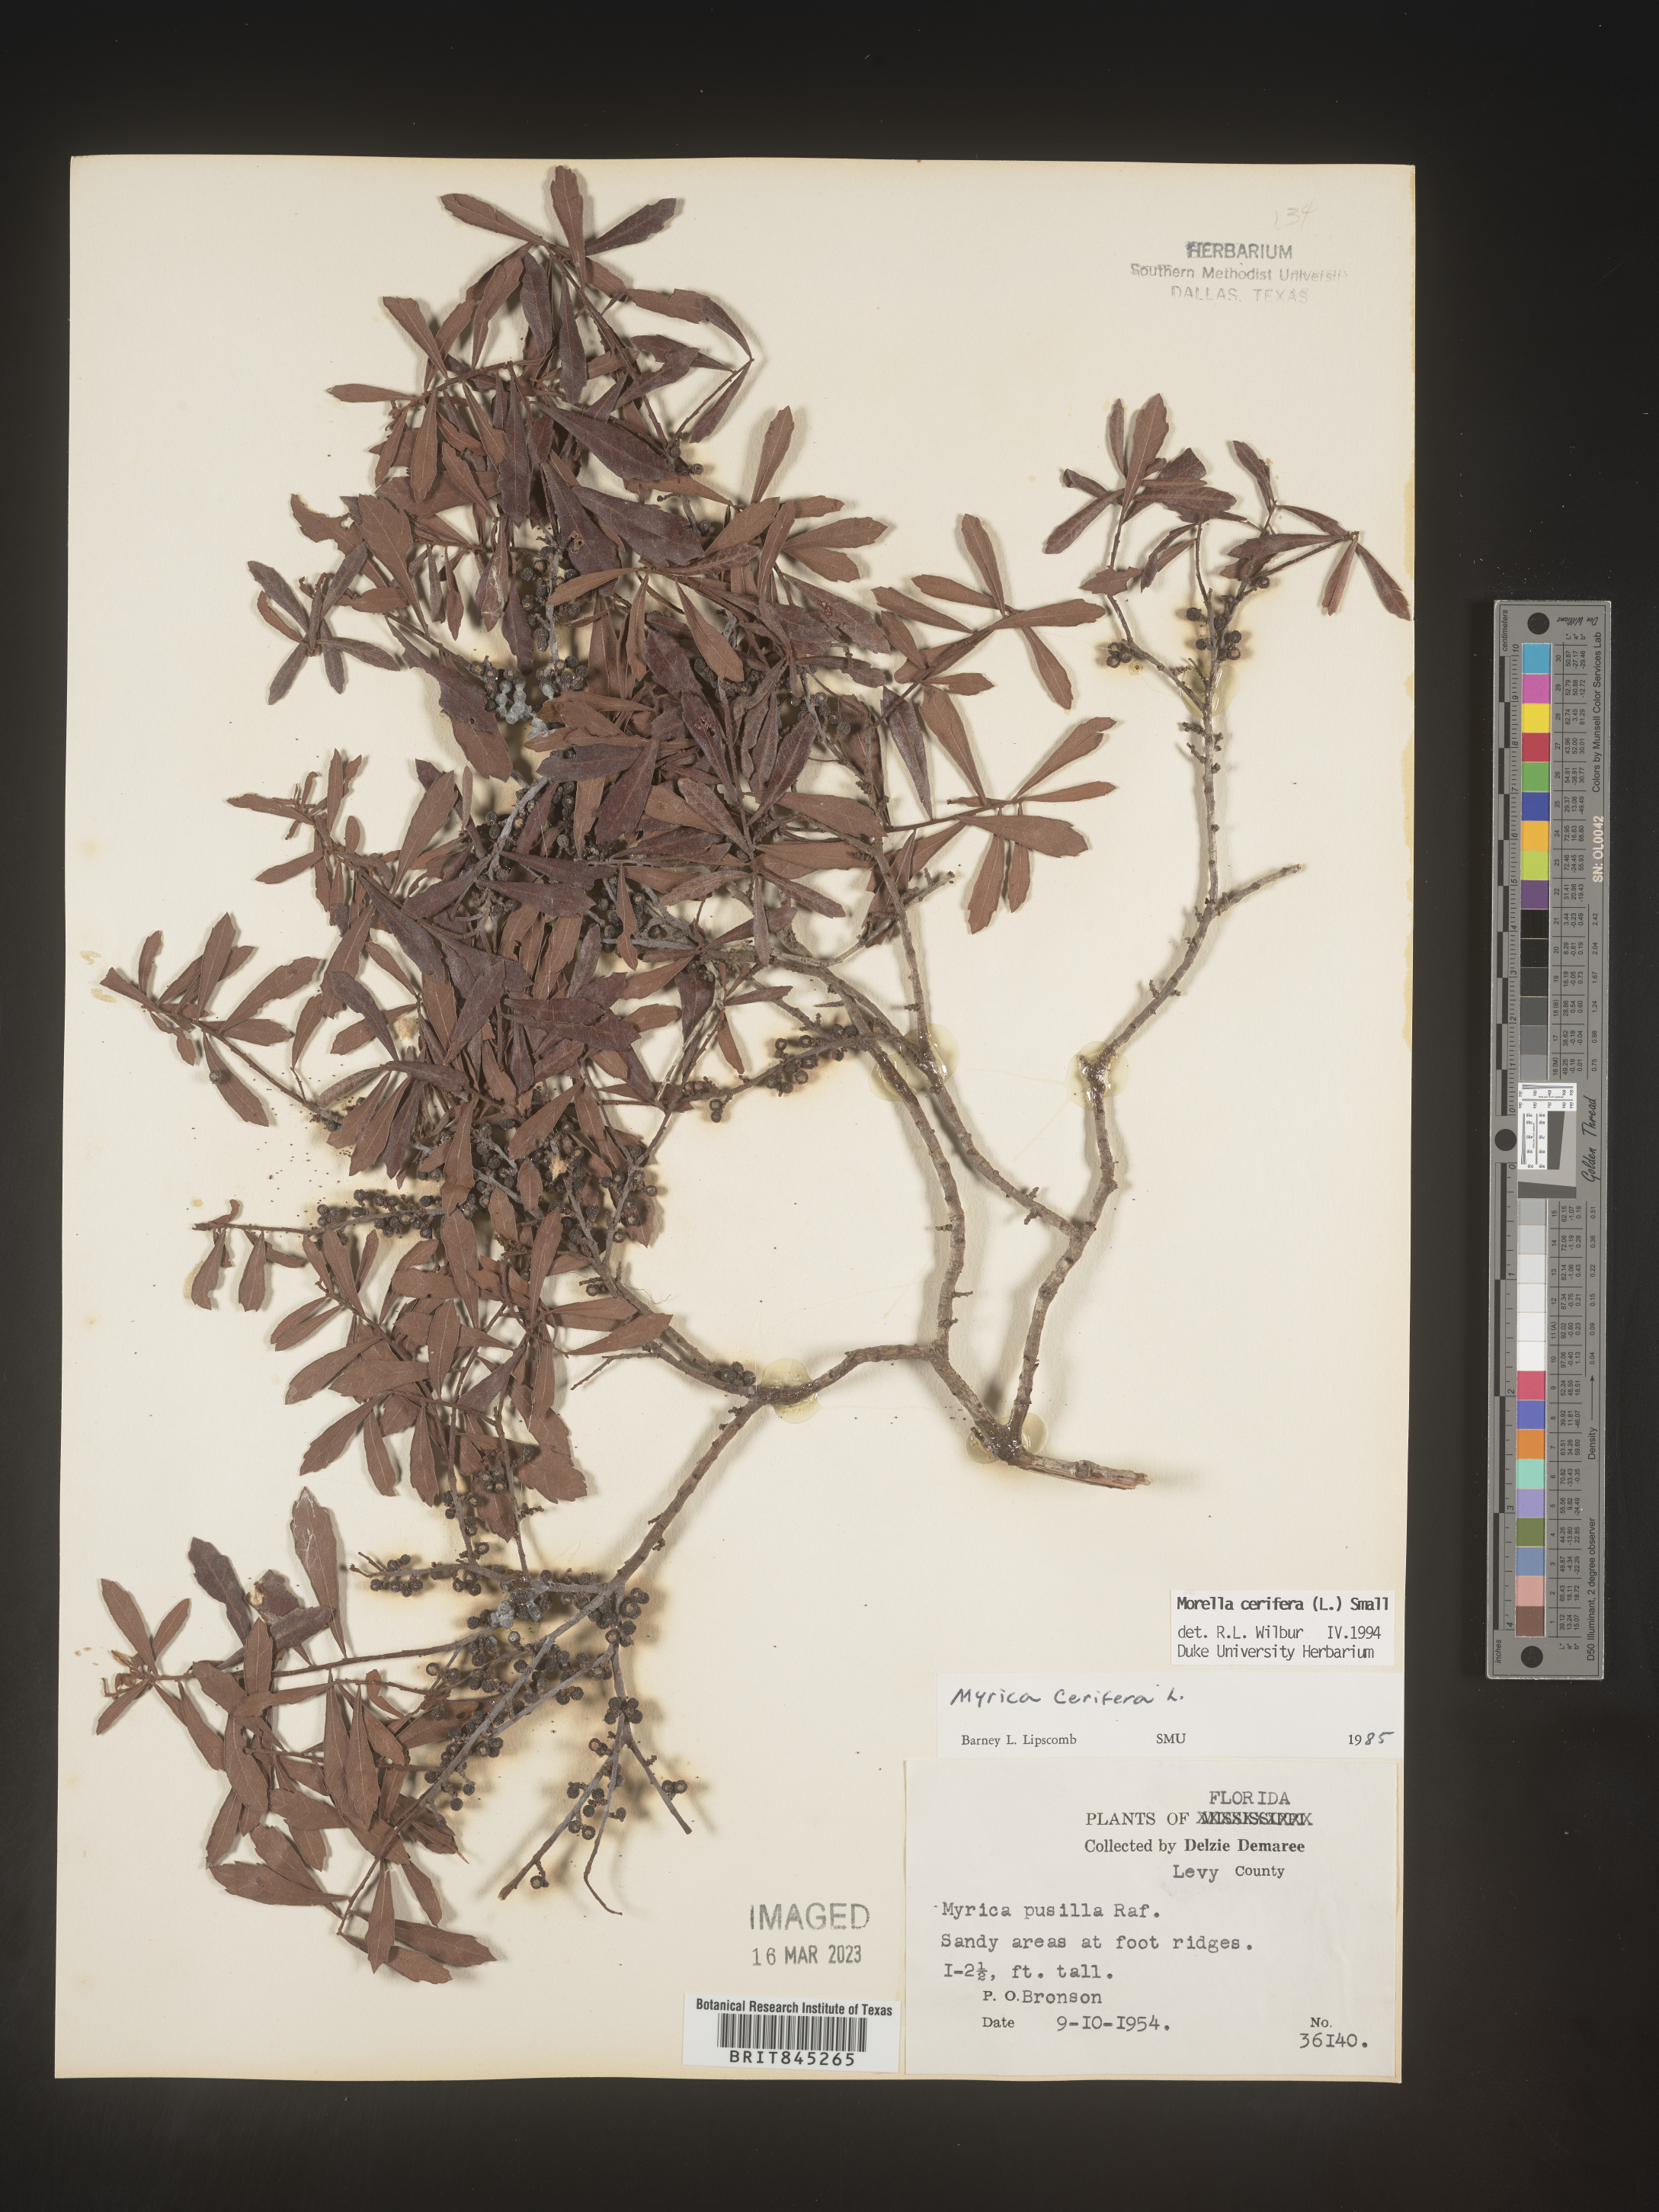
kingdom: Plantae
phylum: Tracheophyta
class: Magnoliopsida
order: Fagales
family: Myricaceae
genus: Morella
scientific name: Morella cerifera
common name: Wax myrtle
